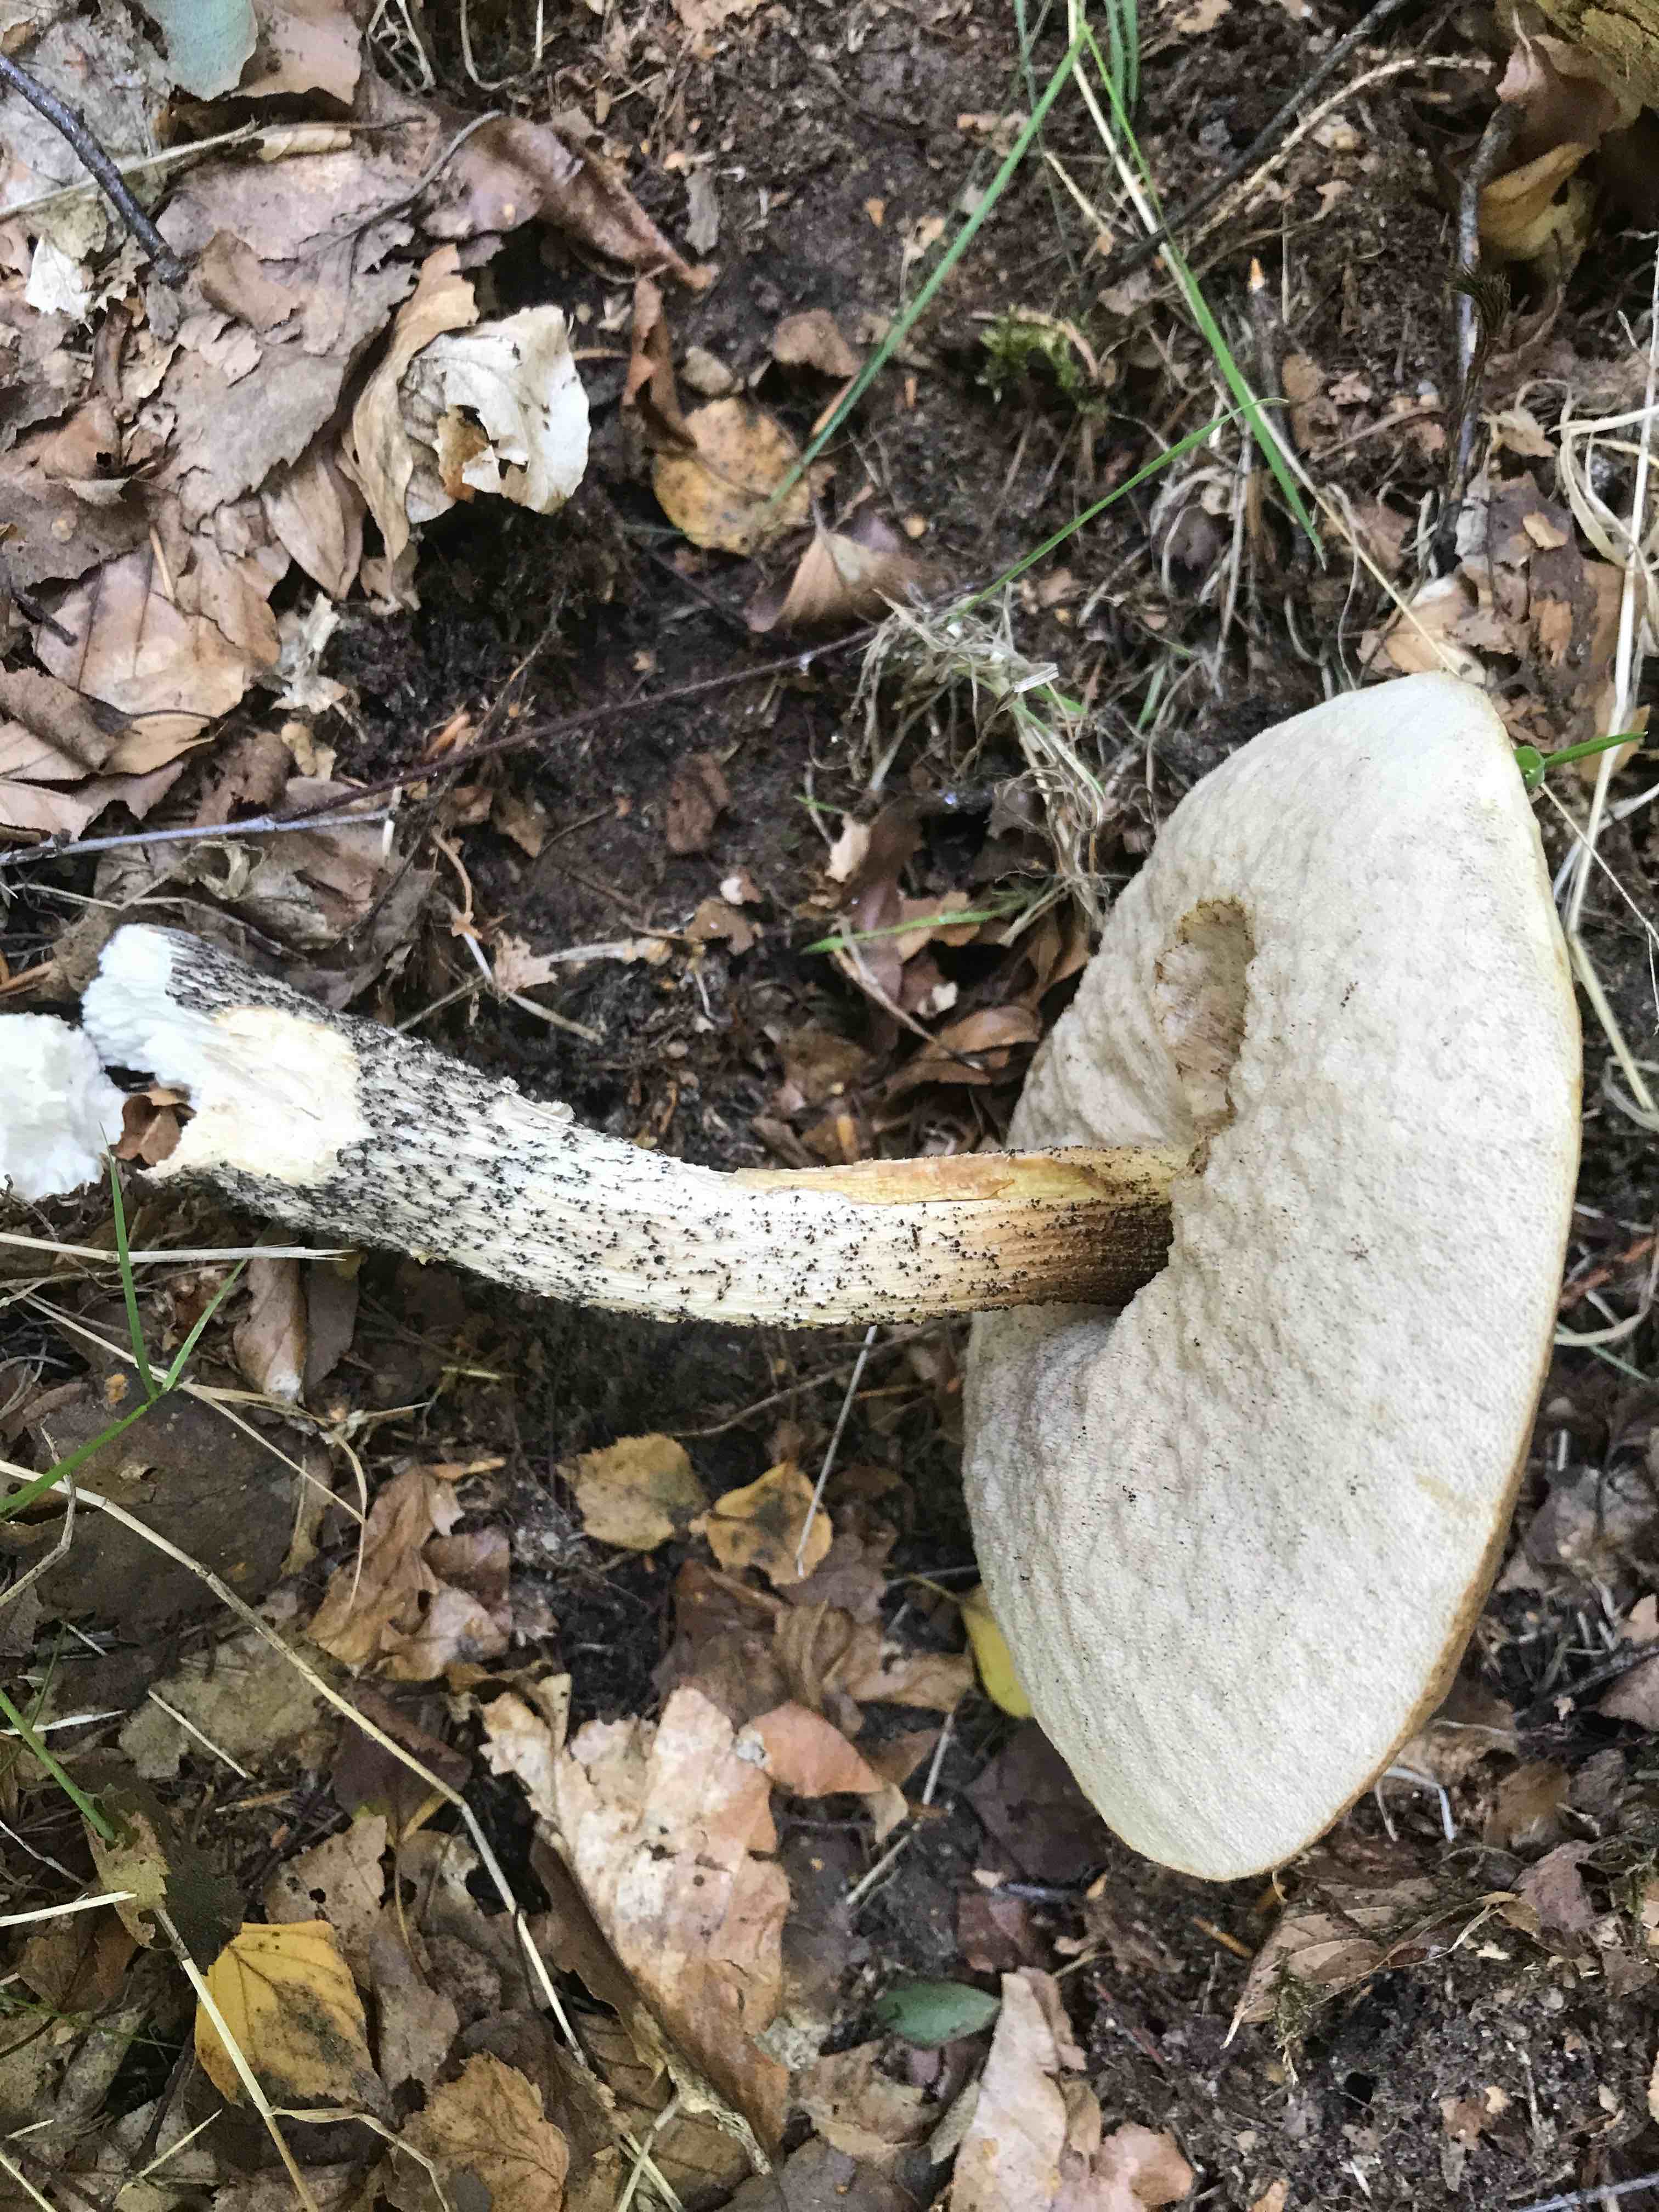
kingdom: Fungi
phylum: Basidiomycota
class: Agaricomycetes
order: Boletales
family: Boletaceae
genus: Leccinum
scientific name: Leccinum scabrum
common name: brun skælrørhat
